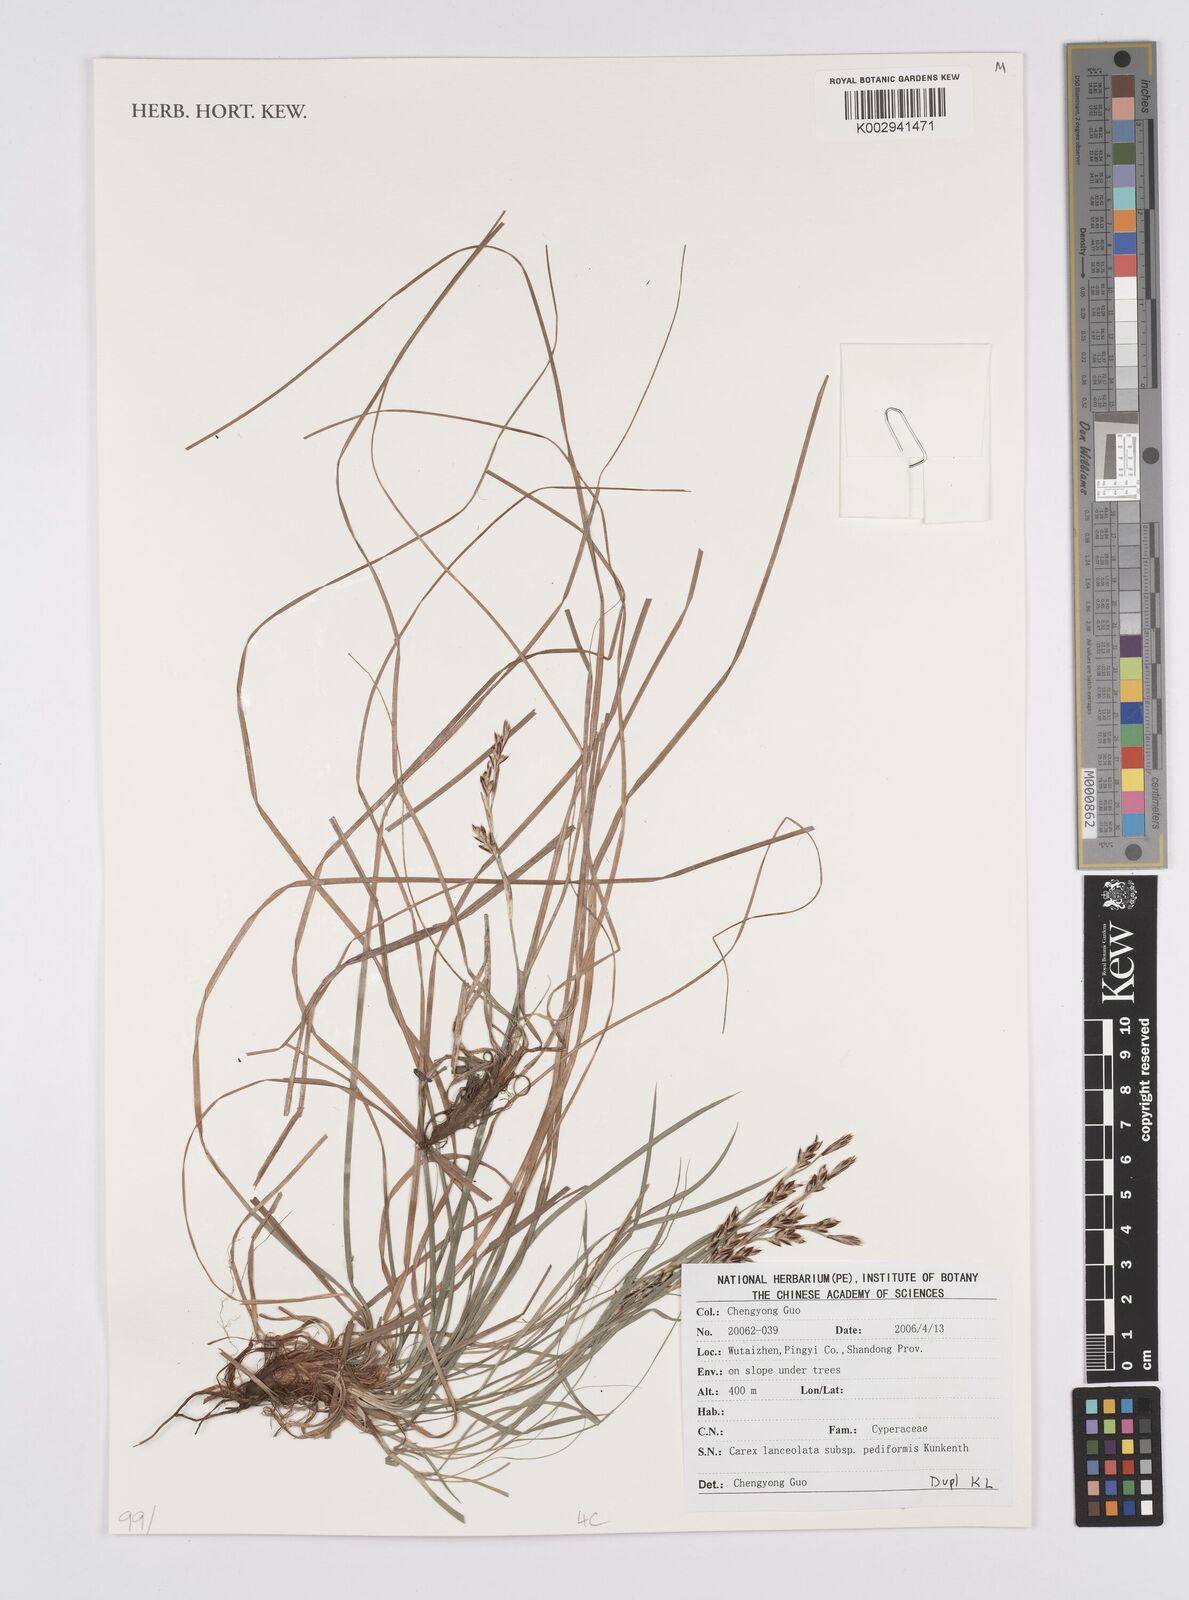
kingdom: Plantae
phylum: Tracheophyta
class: Liliopsida
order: Poales
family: Cyperaceae
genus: Carex
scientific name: Carex lanceolata
